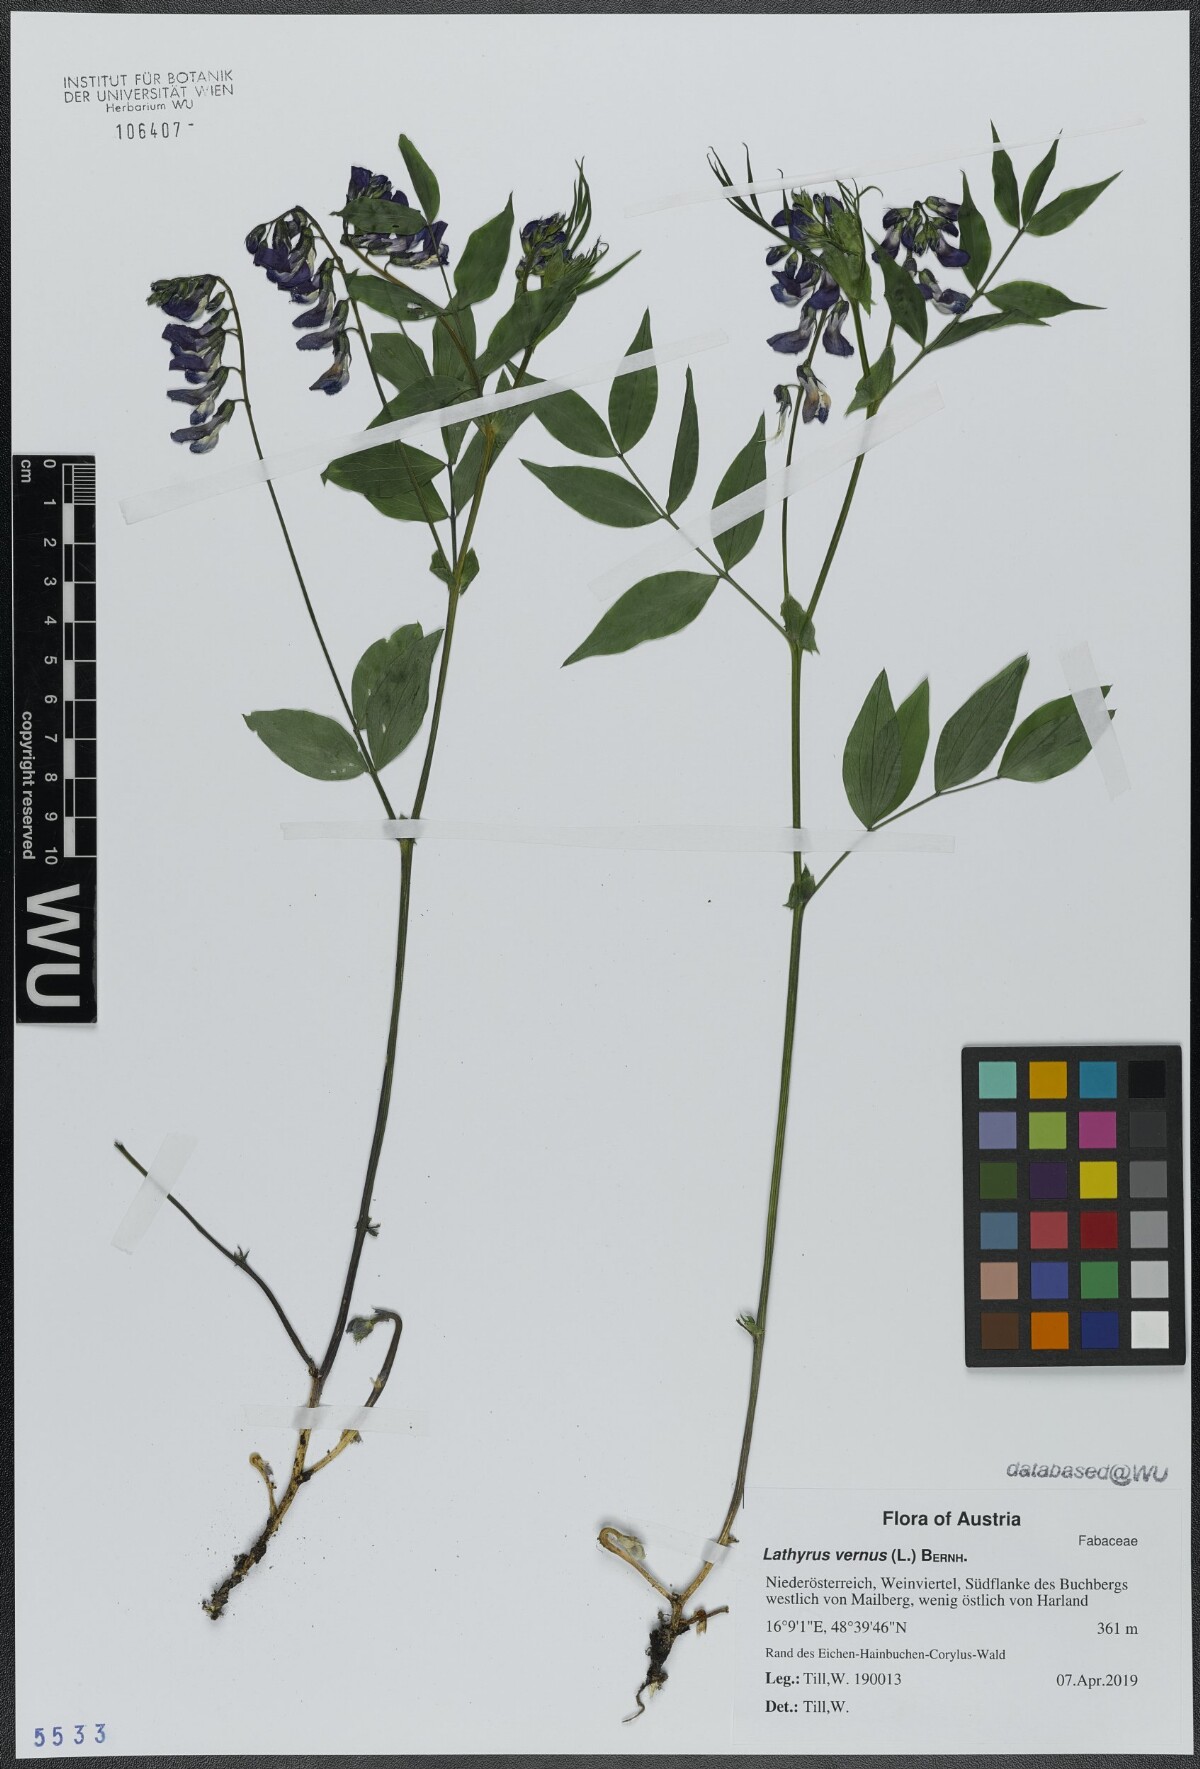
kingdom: Plantae
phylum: Tracheophyta
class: Magnoliopsida
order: Fabales
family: Fabaceae
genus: Lathyrus
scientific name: Lathyrus vernus
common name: Spring pea
